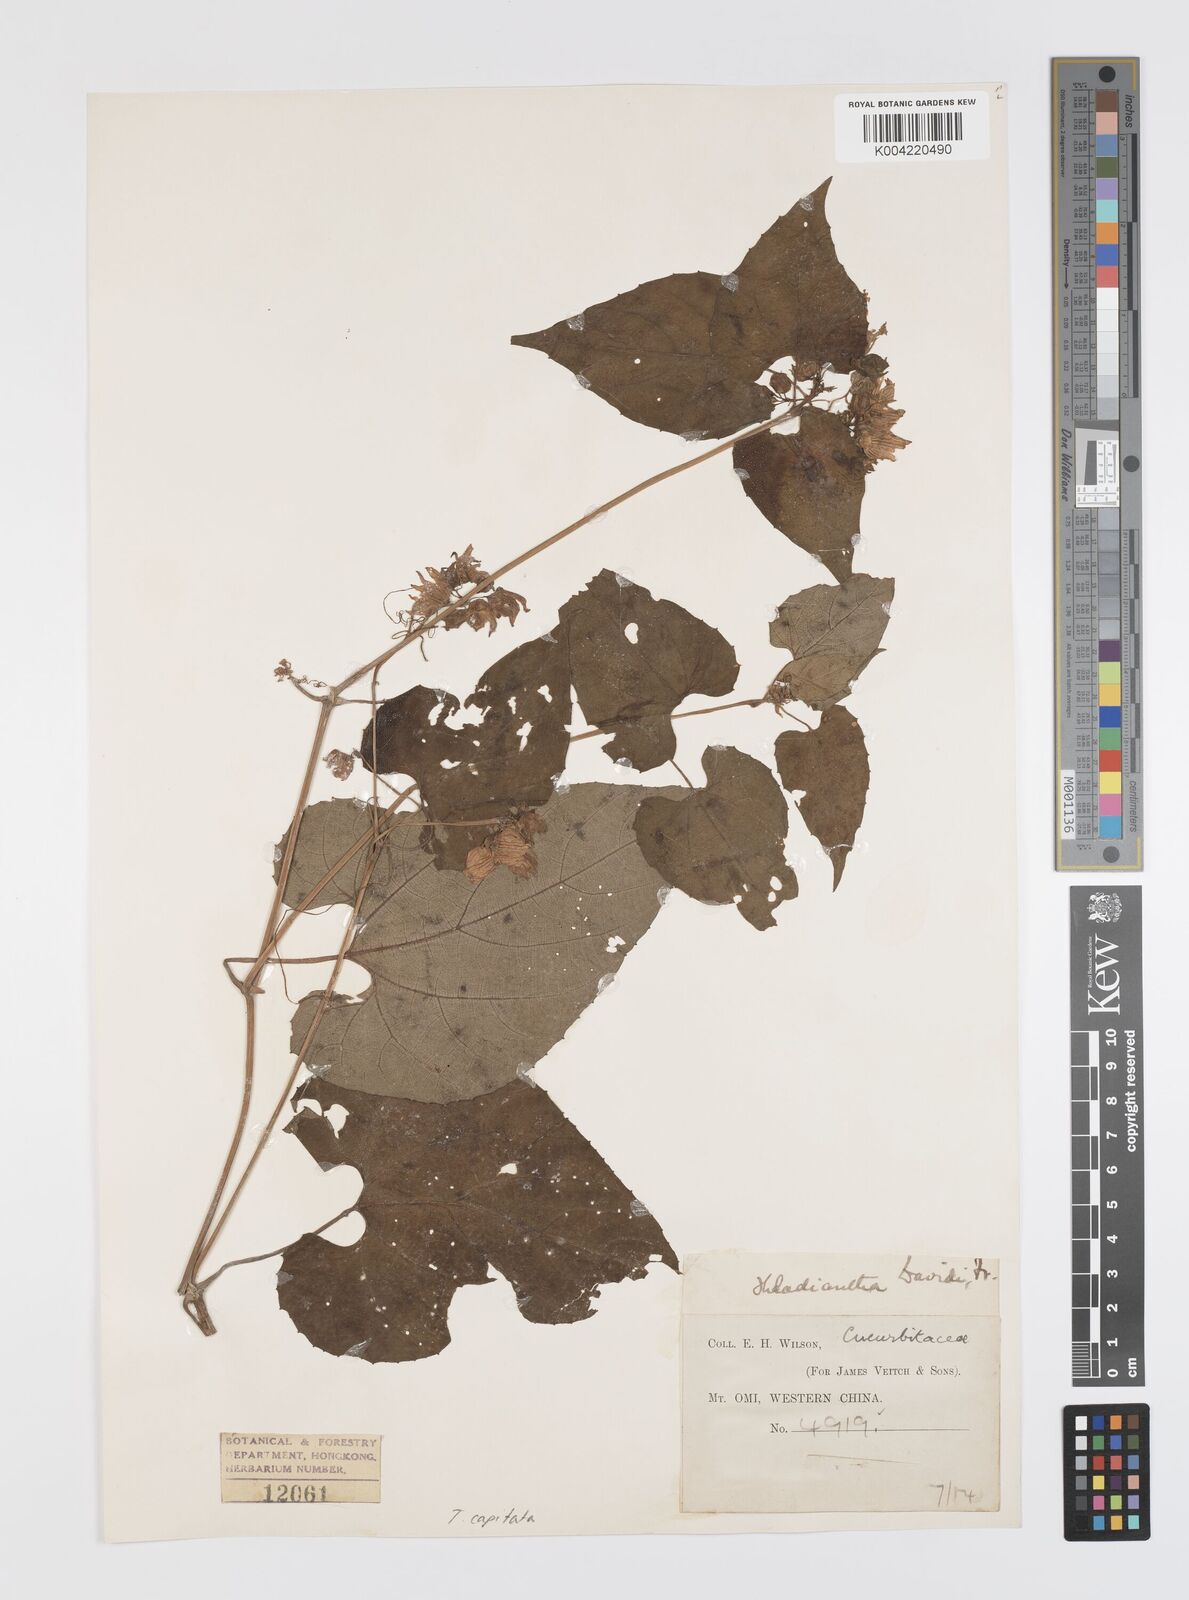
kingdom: Plantae
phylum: Tracheophyta
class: Magnoliopsida
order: Cucurbitales
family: Cucurbitaceae
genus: Thladiantha
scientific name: Thladiantha capitata
